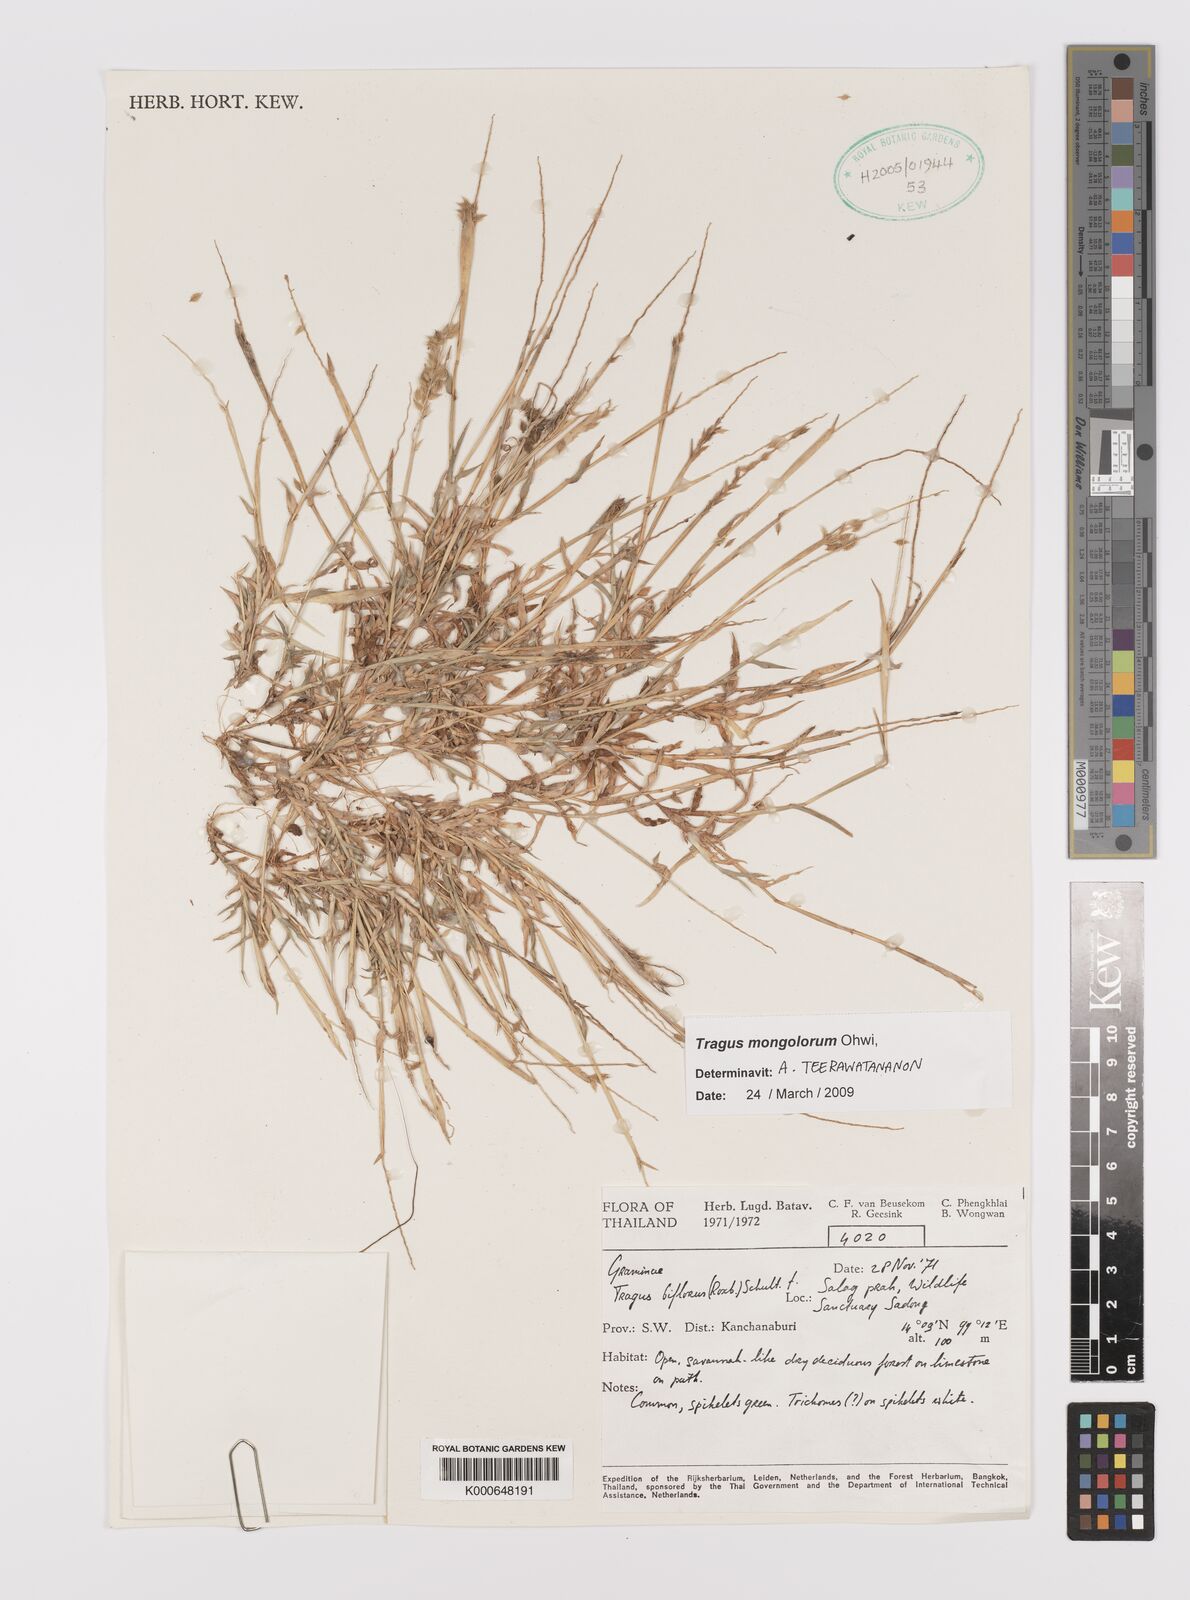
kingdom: Plantae
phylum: Tracheophyta
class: Liliopsida
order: Poales
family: Poaceae
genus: Tragus
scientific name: Tragus mongolorum
